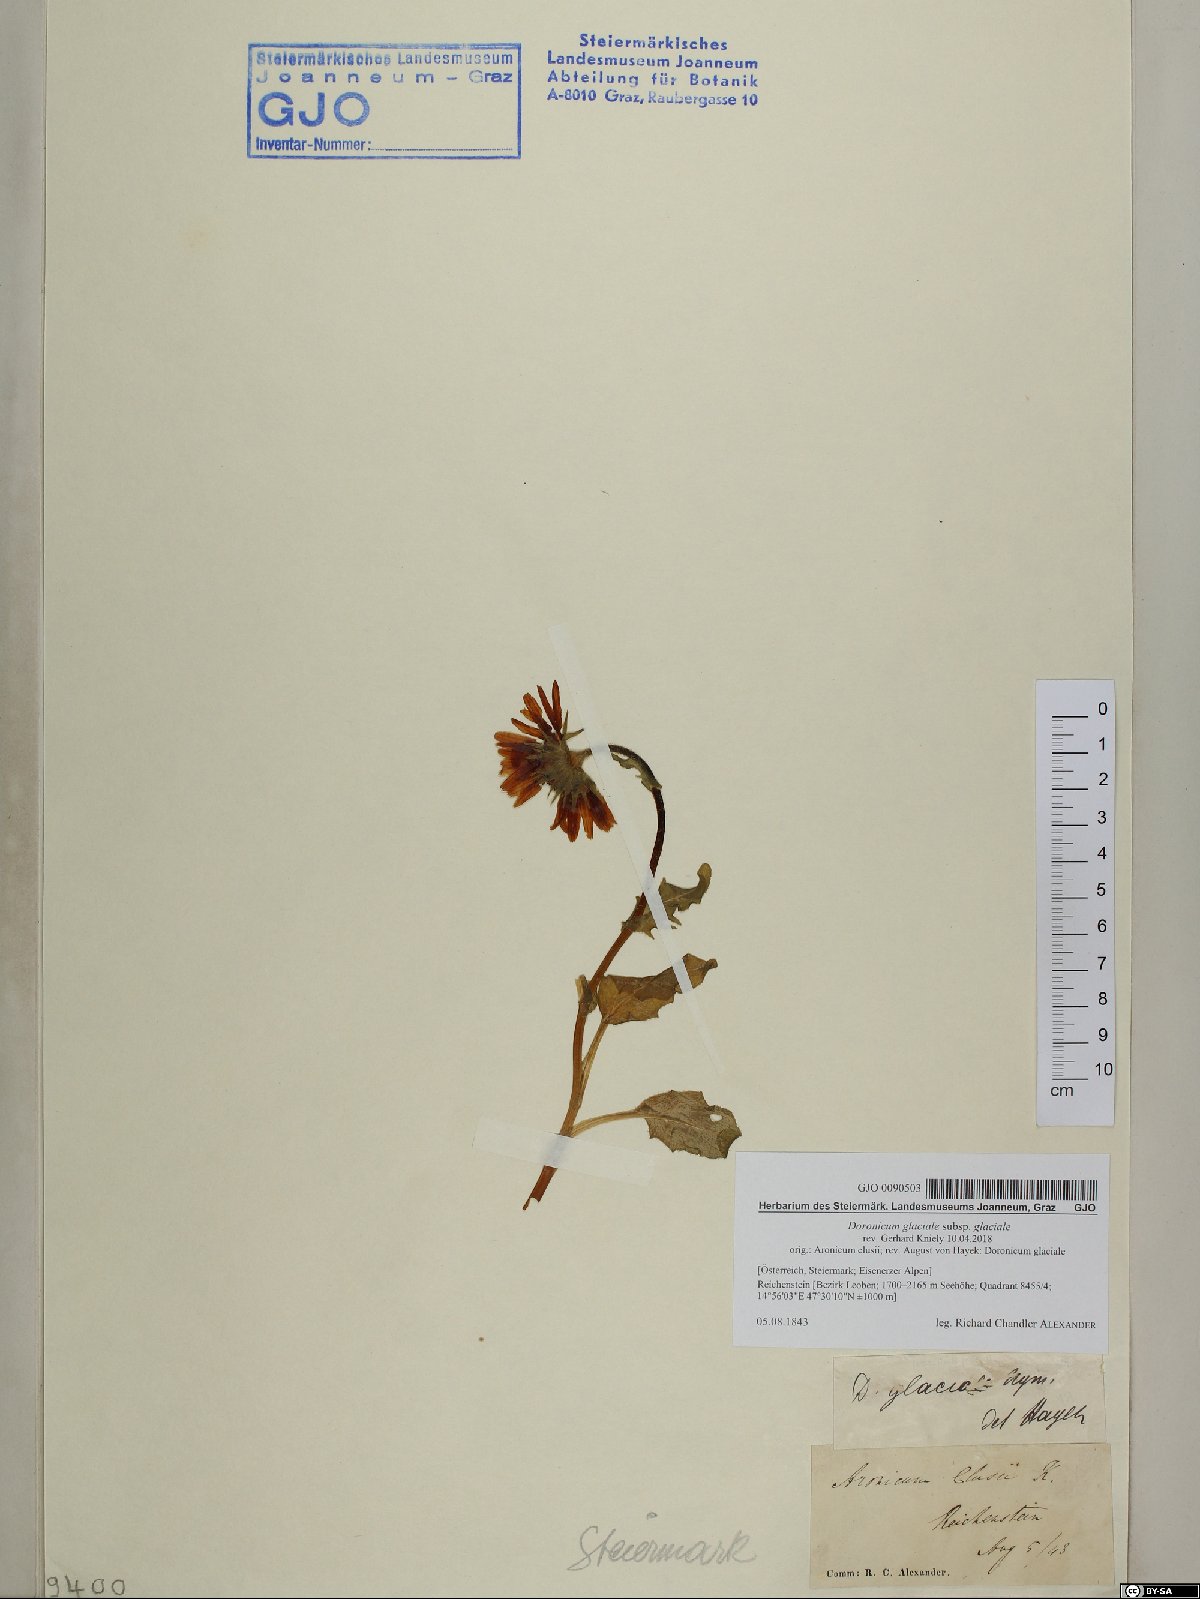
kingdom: Plantae
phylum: Tracheophyta
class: Magnoliopsida
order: Asterales
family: Asteraceae
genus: Doronicum
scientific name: Doronicum glaciale
